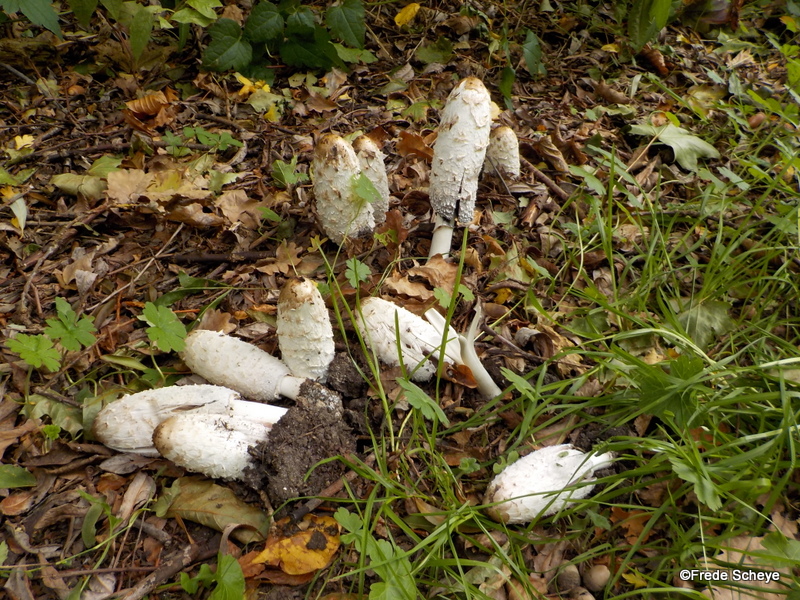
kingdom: Fungi
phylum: Basidiomycota
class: Agaricomycetes
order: Agaricales
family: Agaricaceae
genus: Coprinus
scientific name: Coprinus comatus
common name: stor parykhat
